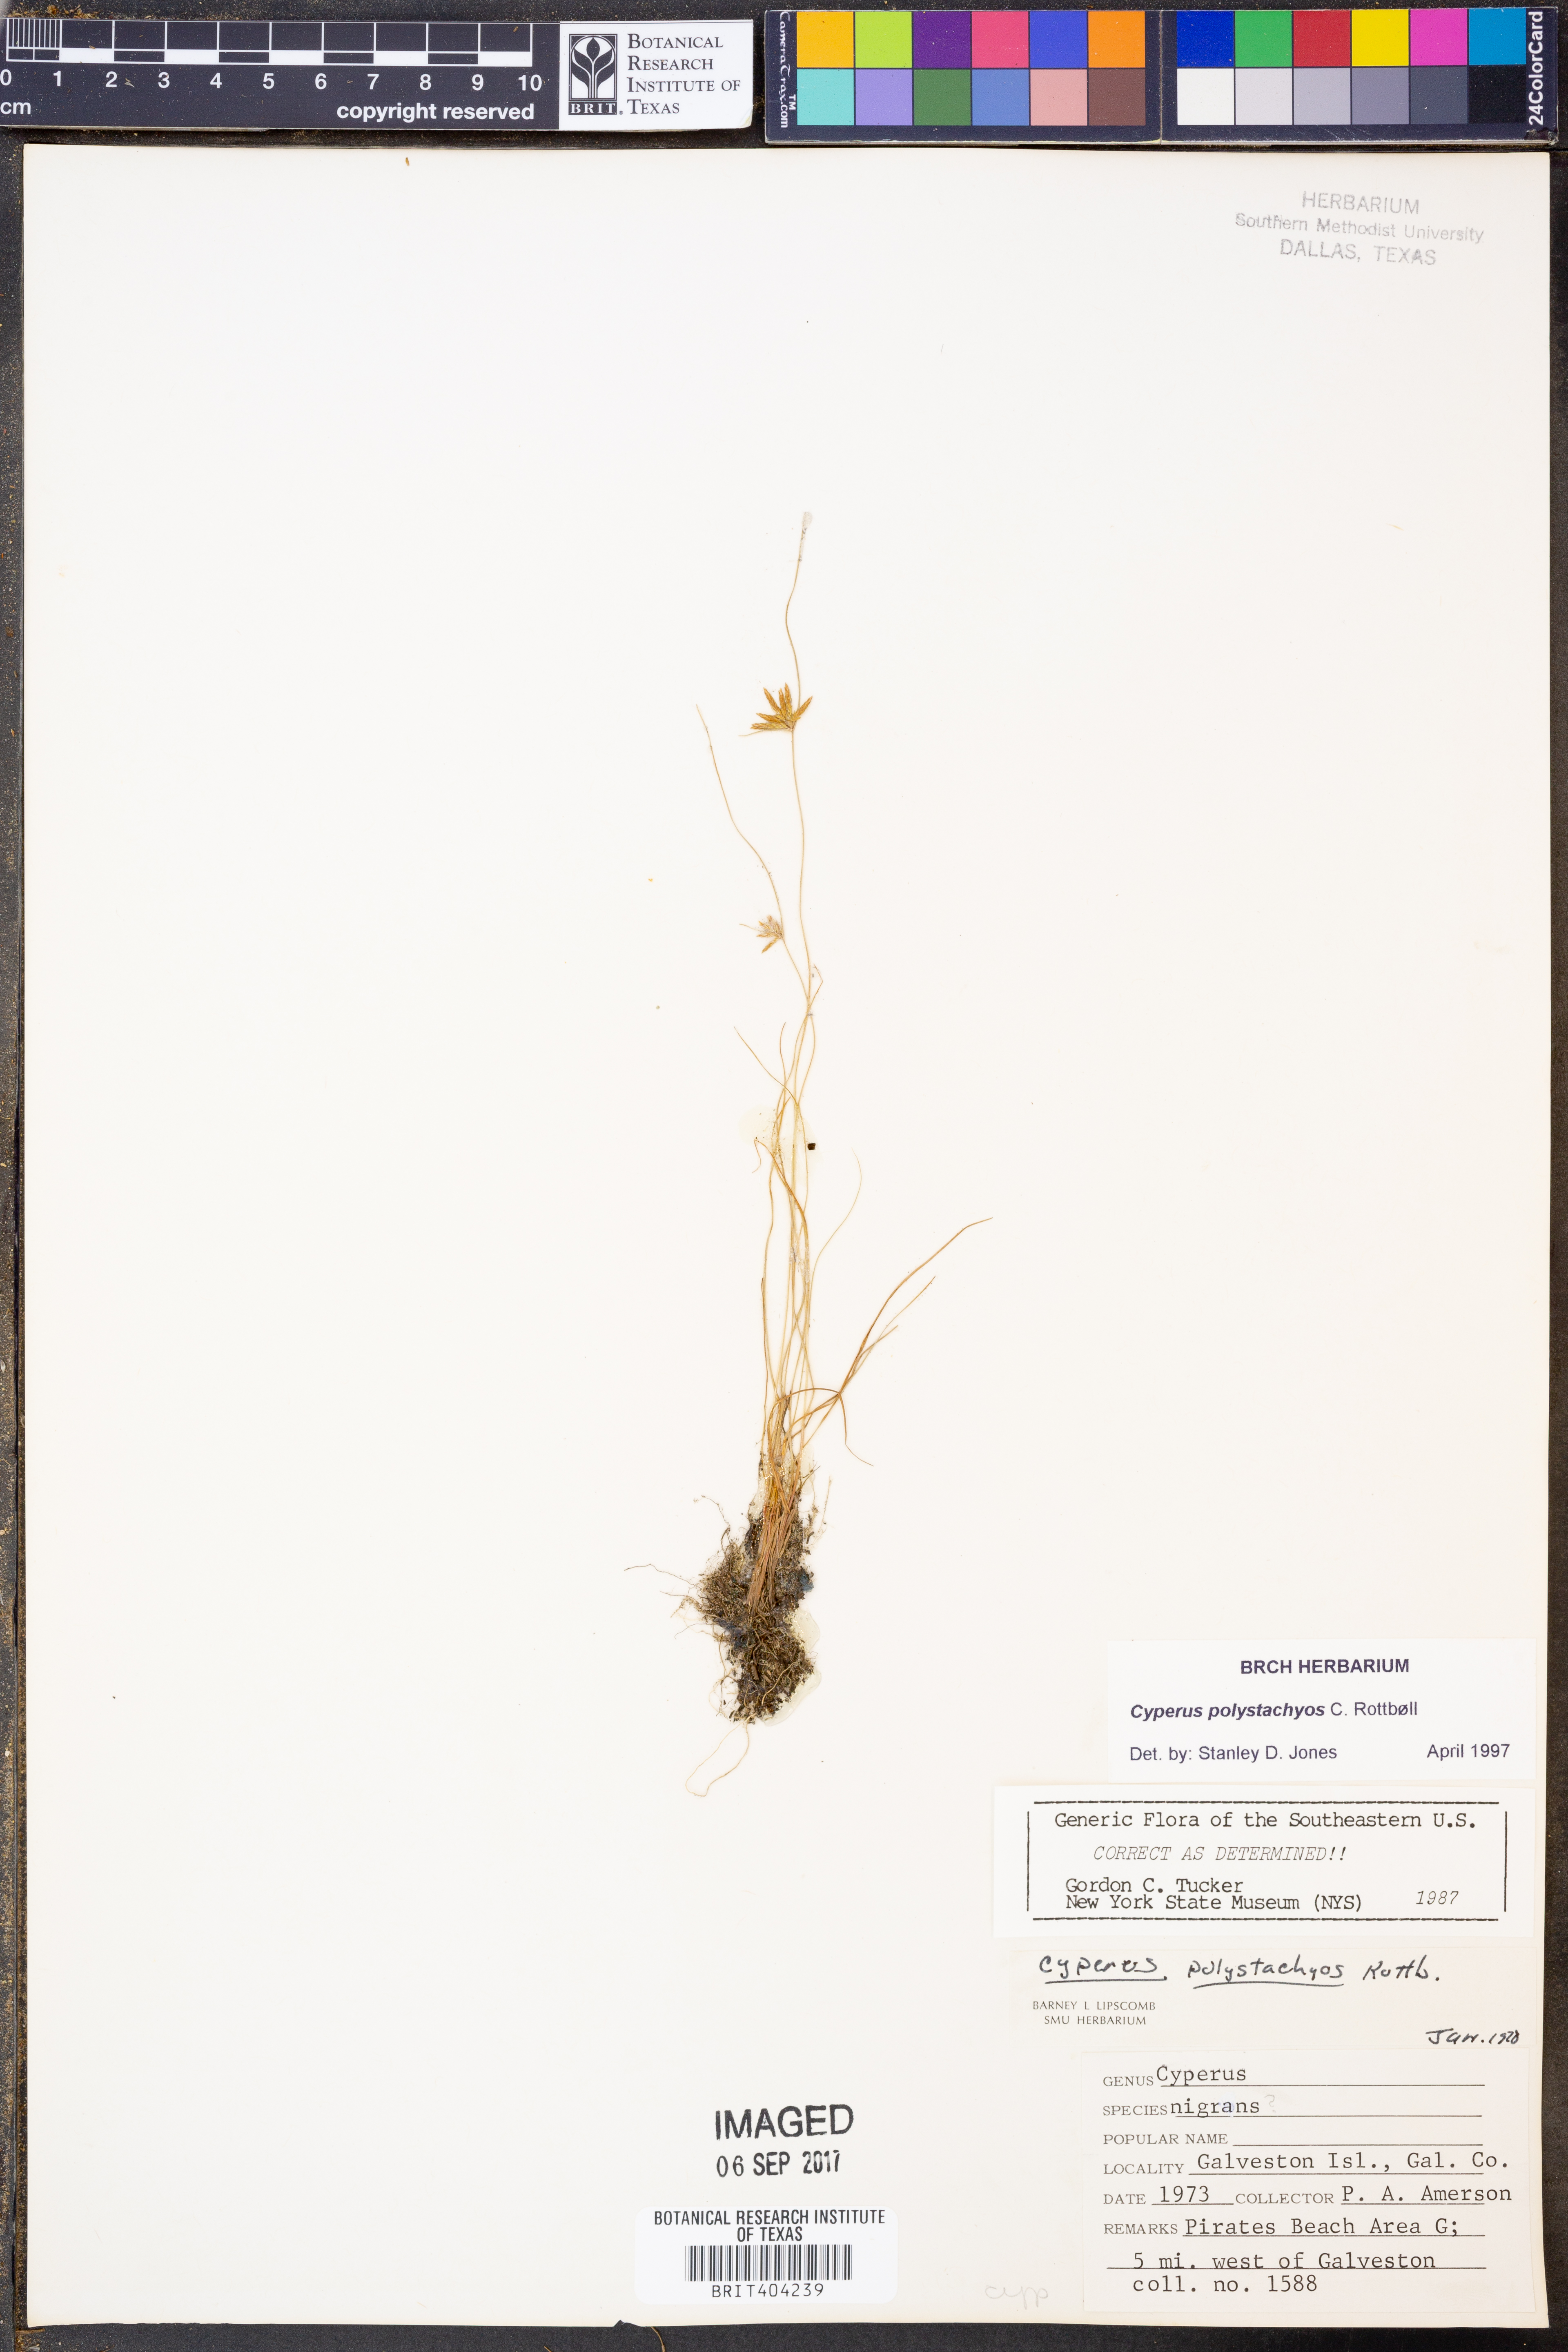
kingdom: Plantae
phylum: Tracheophyta
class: Liliopsida
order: Poales
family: Cyperaceae
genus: Cyperus
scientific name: Cyperus polystachyos
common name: Bunchy flat sedge
